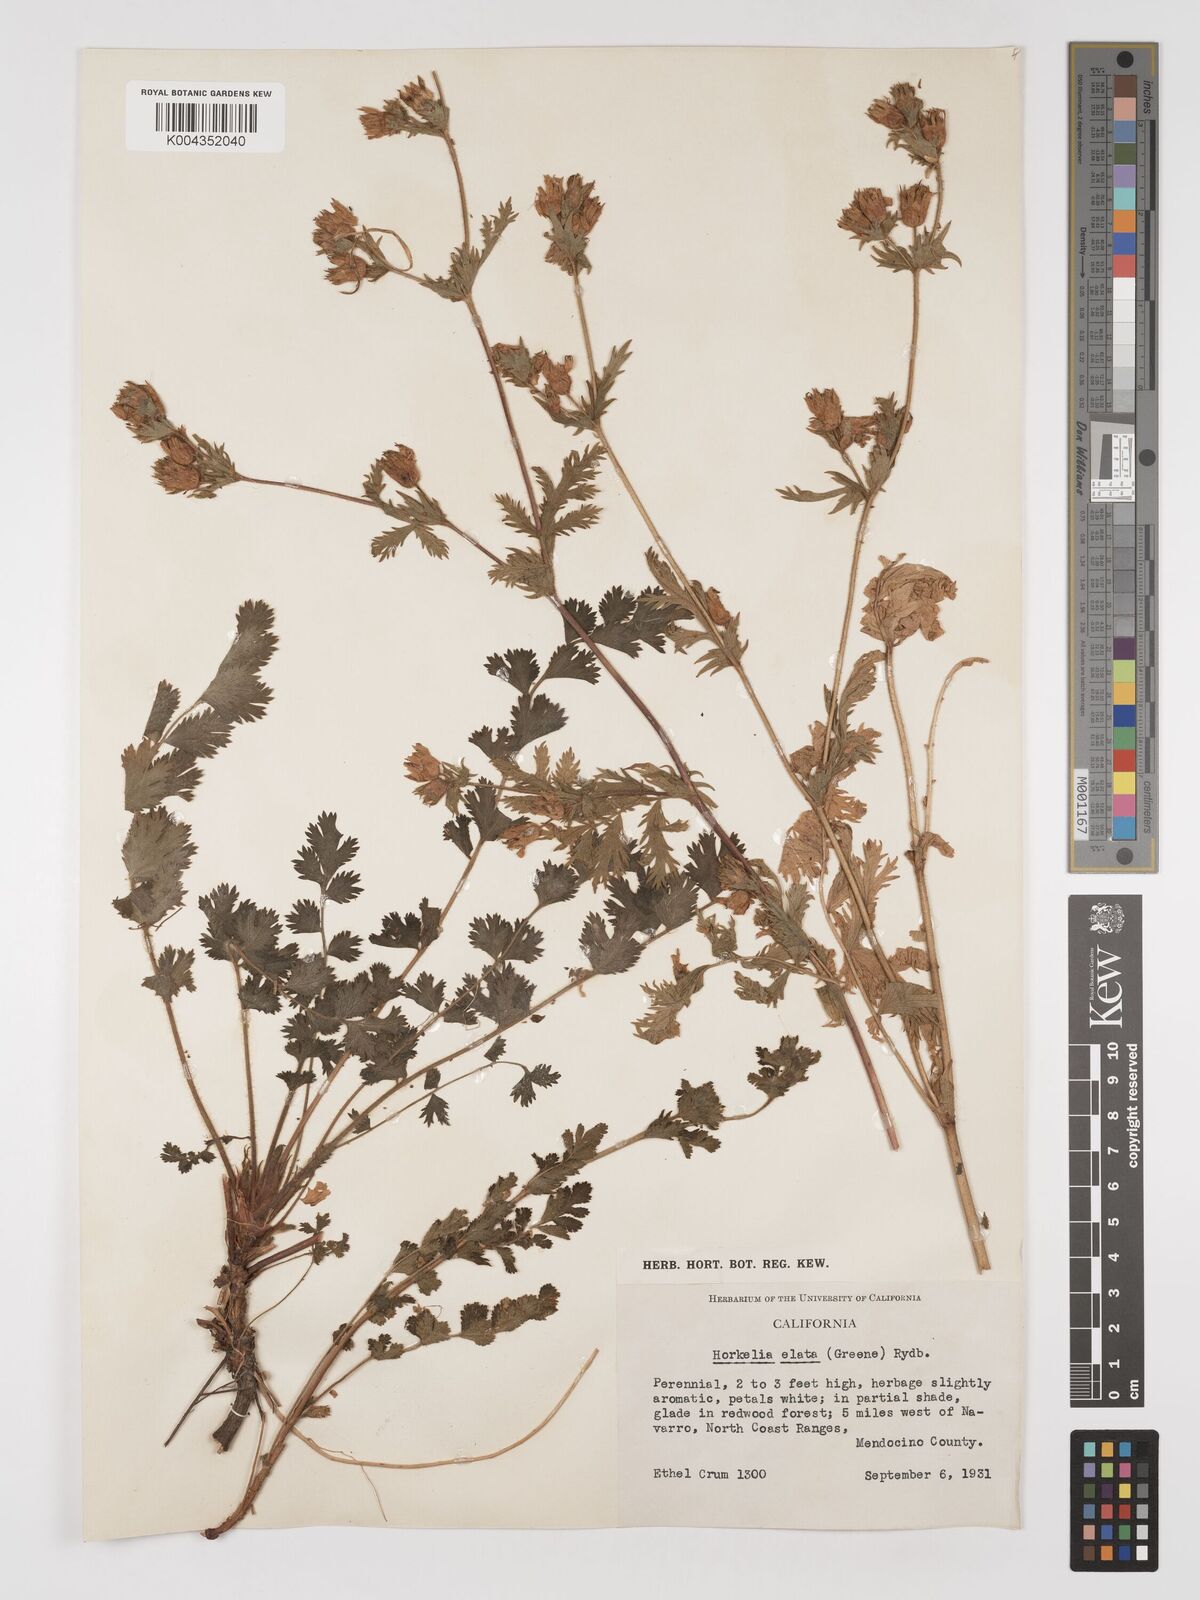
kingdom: Plantae
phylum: Tracheophyta
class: Magnoliopsida
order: Rosales
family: Rosaceae
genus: Potentilla
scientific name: Potentilla californica
